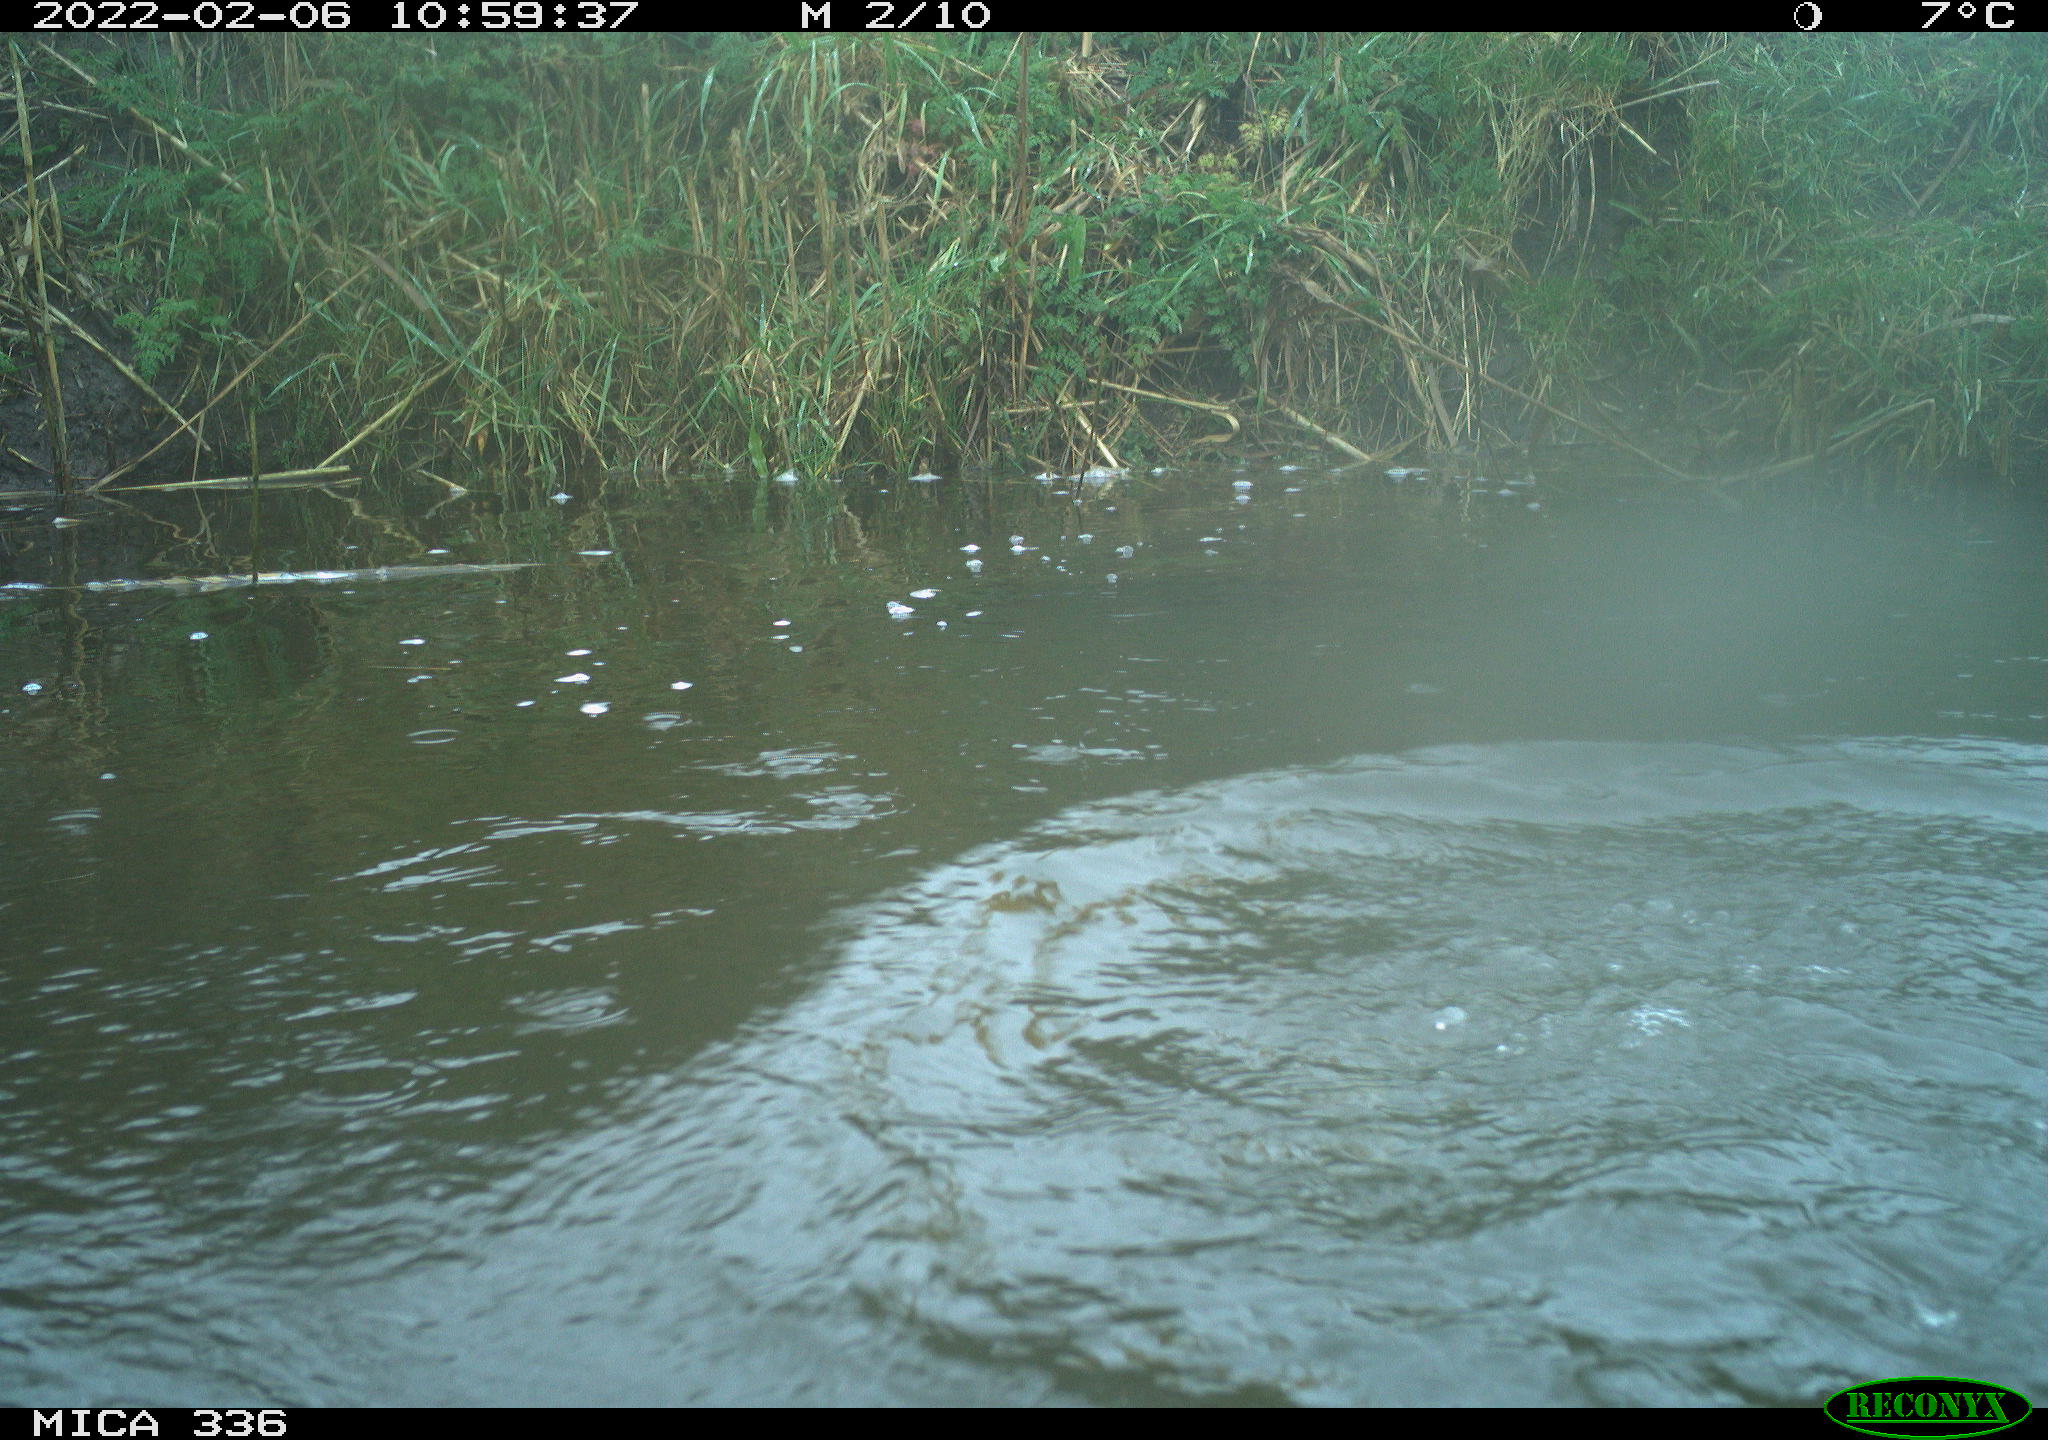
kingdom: Animalia
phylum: Chordata
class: Aves
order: Suliformes
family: Phalacrocoracidae
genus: Phalacrocorax
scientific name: Phalacrocorax carbo
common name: Great cormorant
